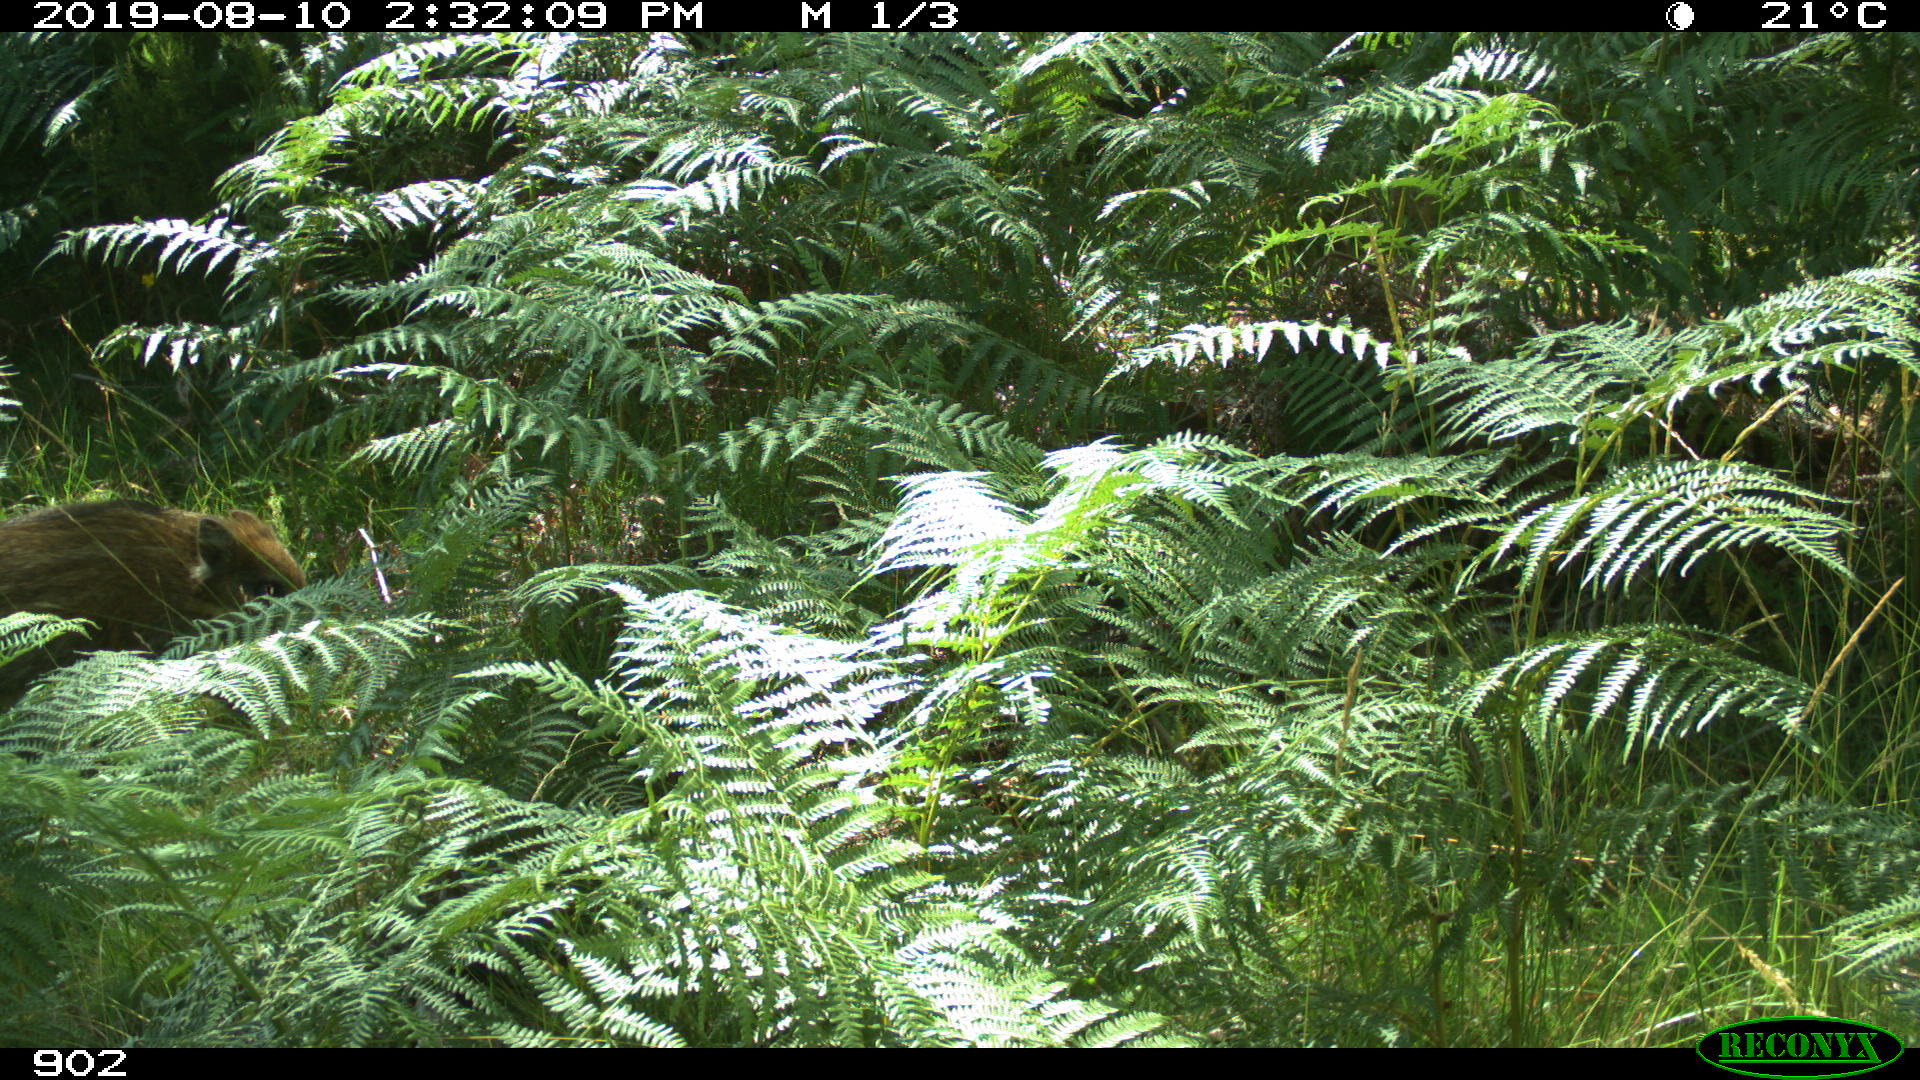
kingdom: Animalia
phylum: Chordata
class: Mammalia
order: Artiodactyla
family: Suidae
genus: Sus
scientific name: Sus scrofa
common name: Wild boar
